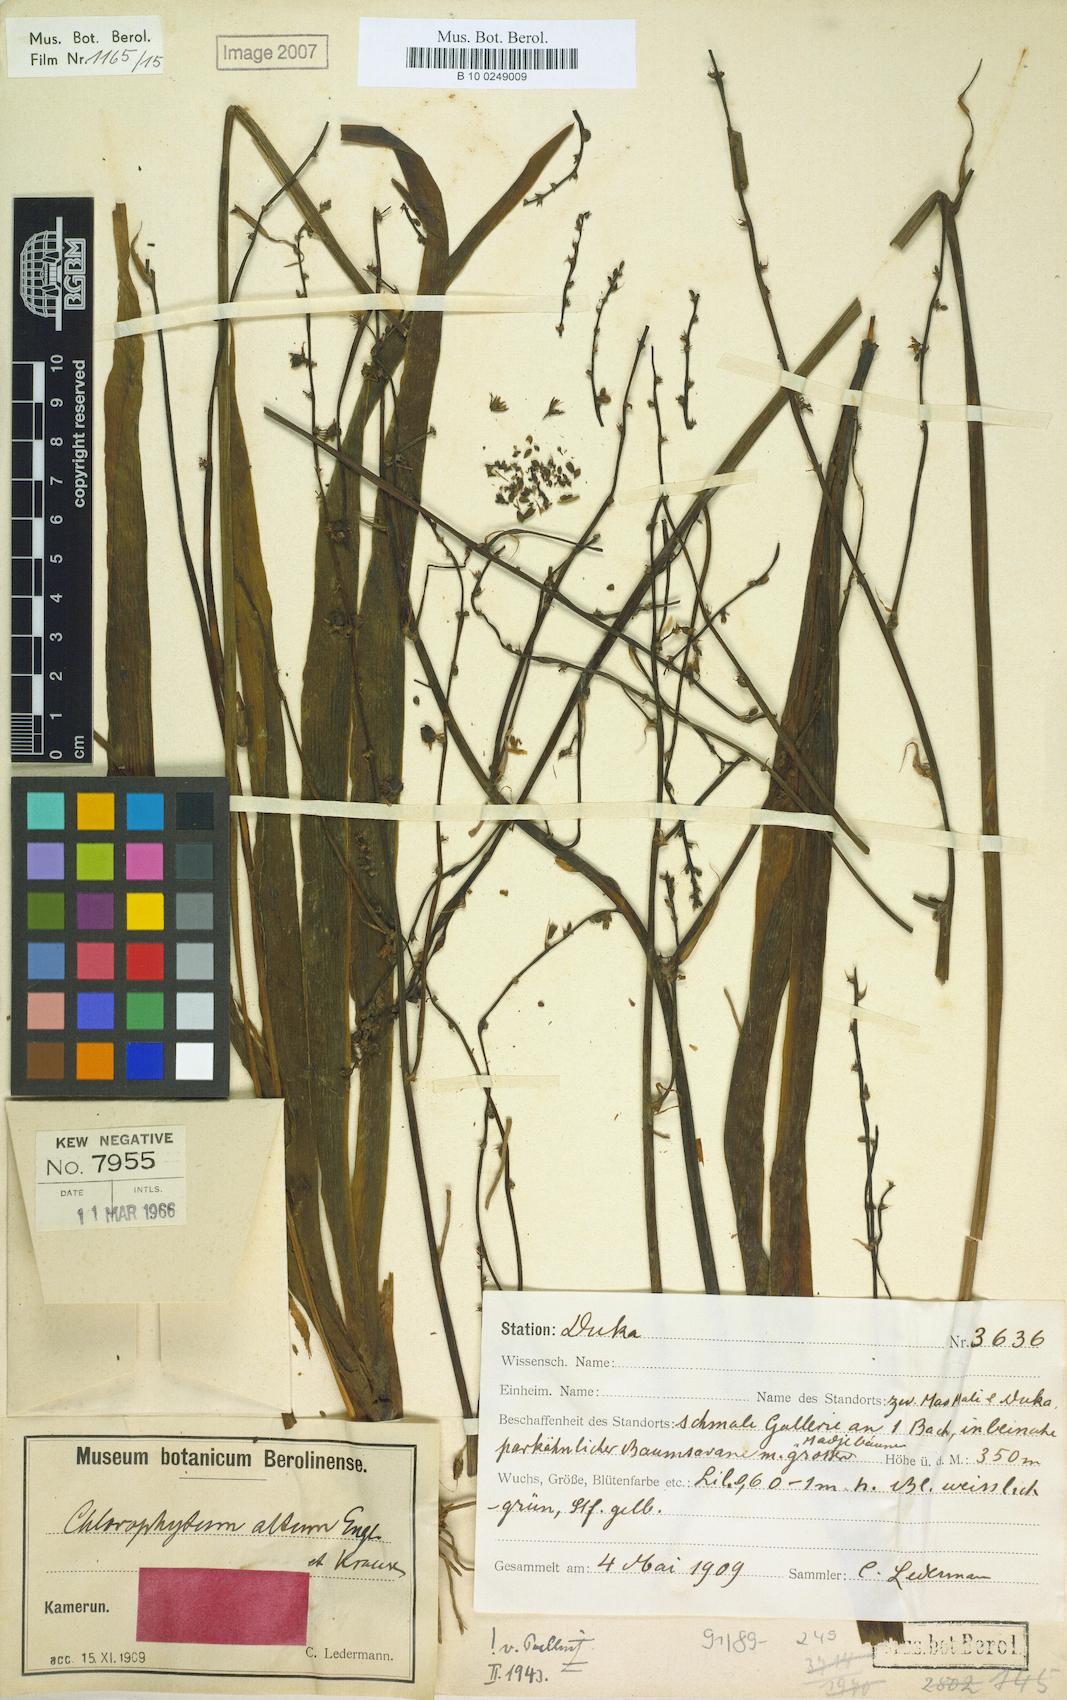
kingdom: Plantae
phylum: Tracheophyta
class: Liliopsida
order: Asparagales
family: Asparagaceae
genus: Chlorophytum
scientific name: Chlorophytum altum
